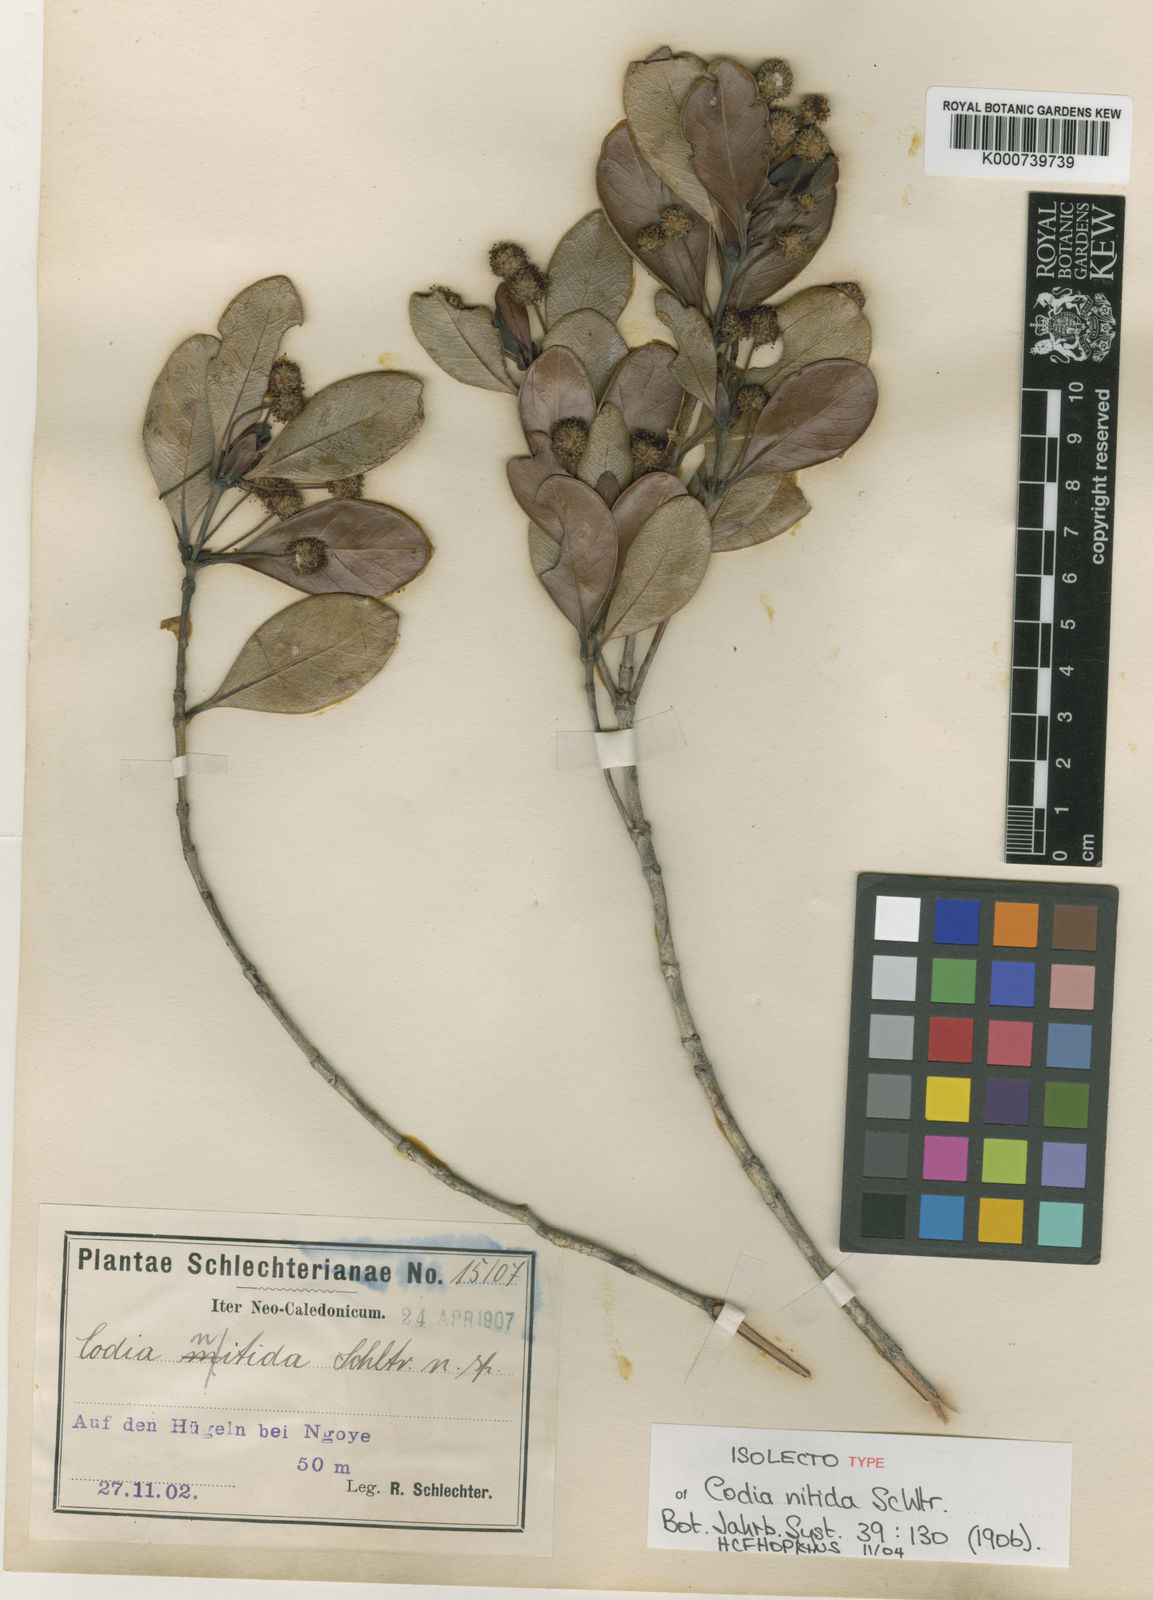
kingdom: Plantae
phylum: Tracheophyta
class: Magnoliopsida
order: Oxalidales
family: Cunoniaceae
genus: Codia
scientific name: Codia nitida
